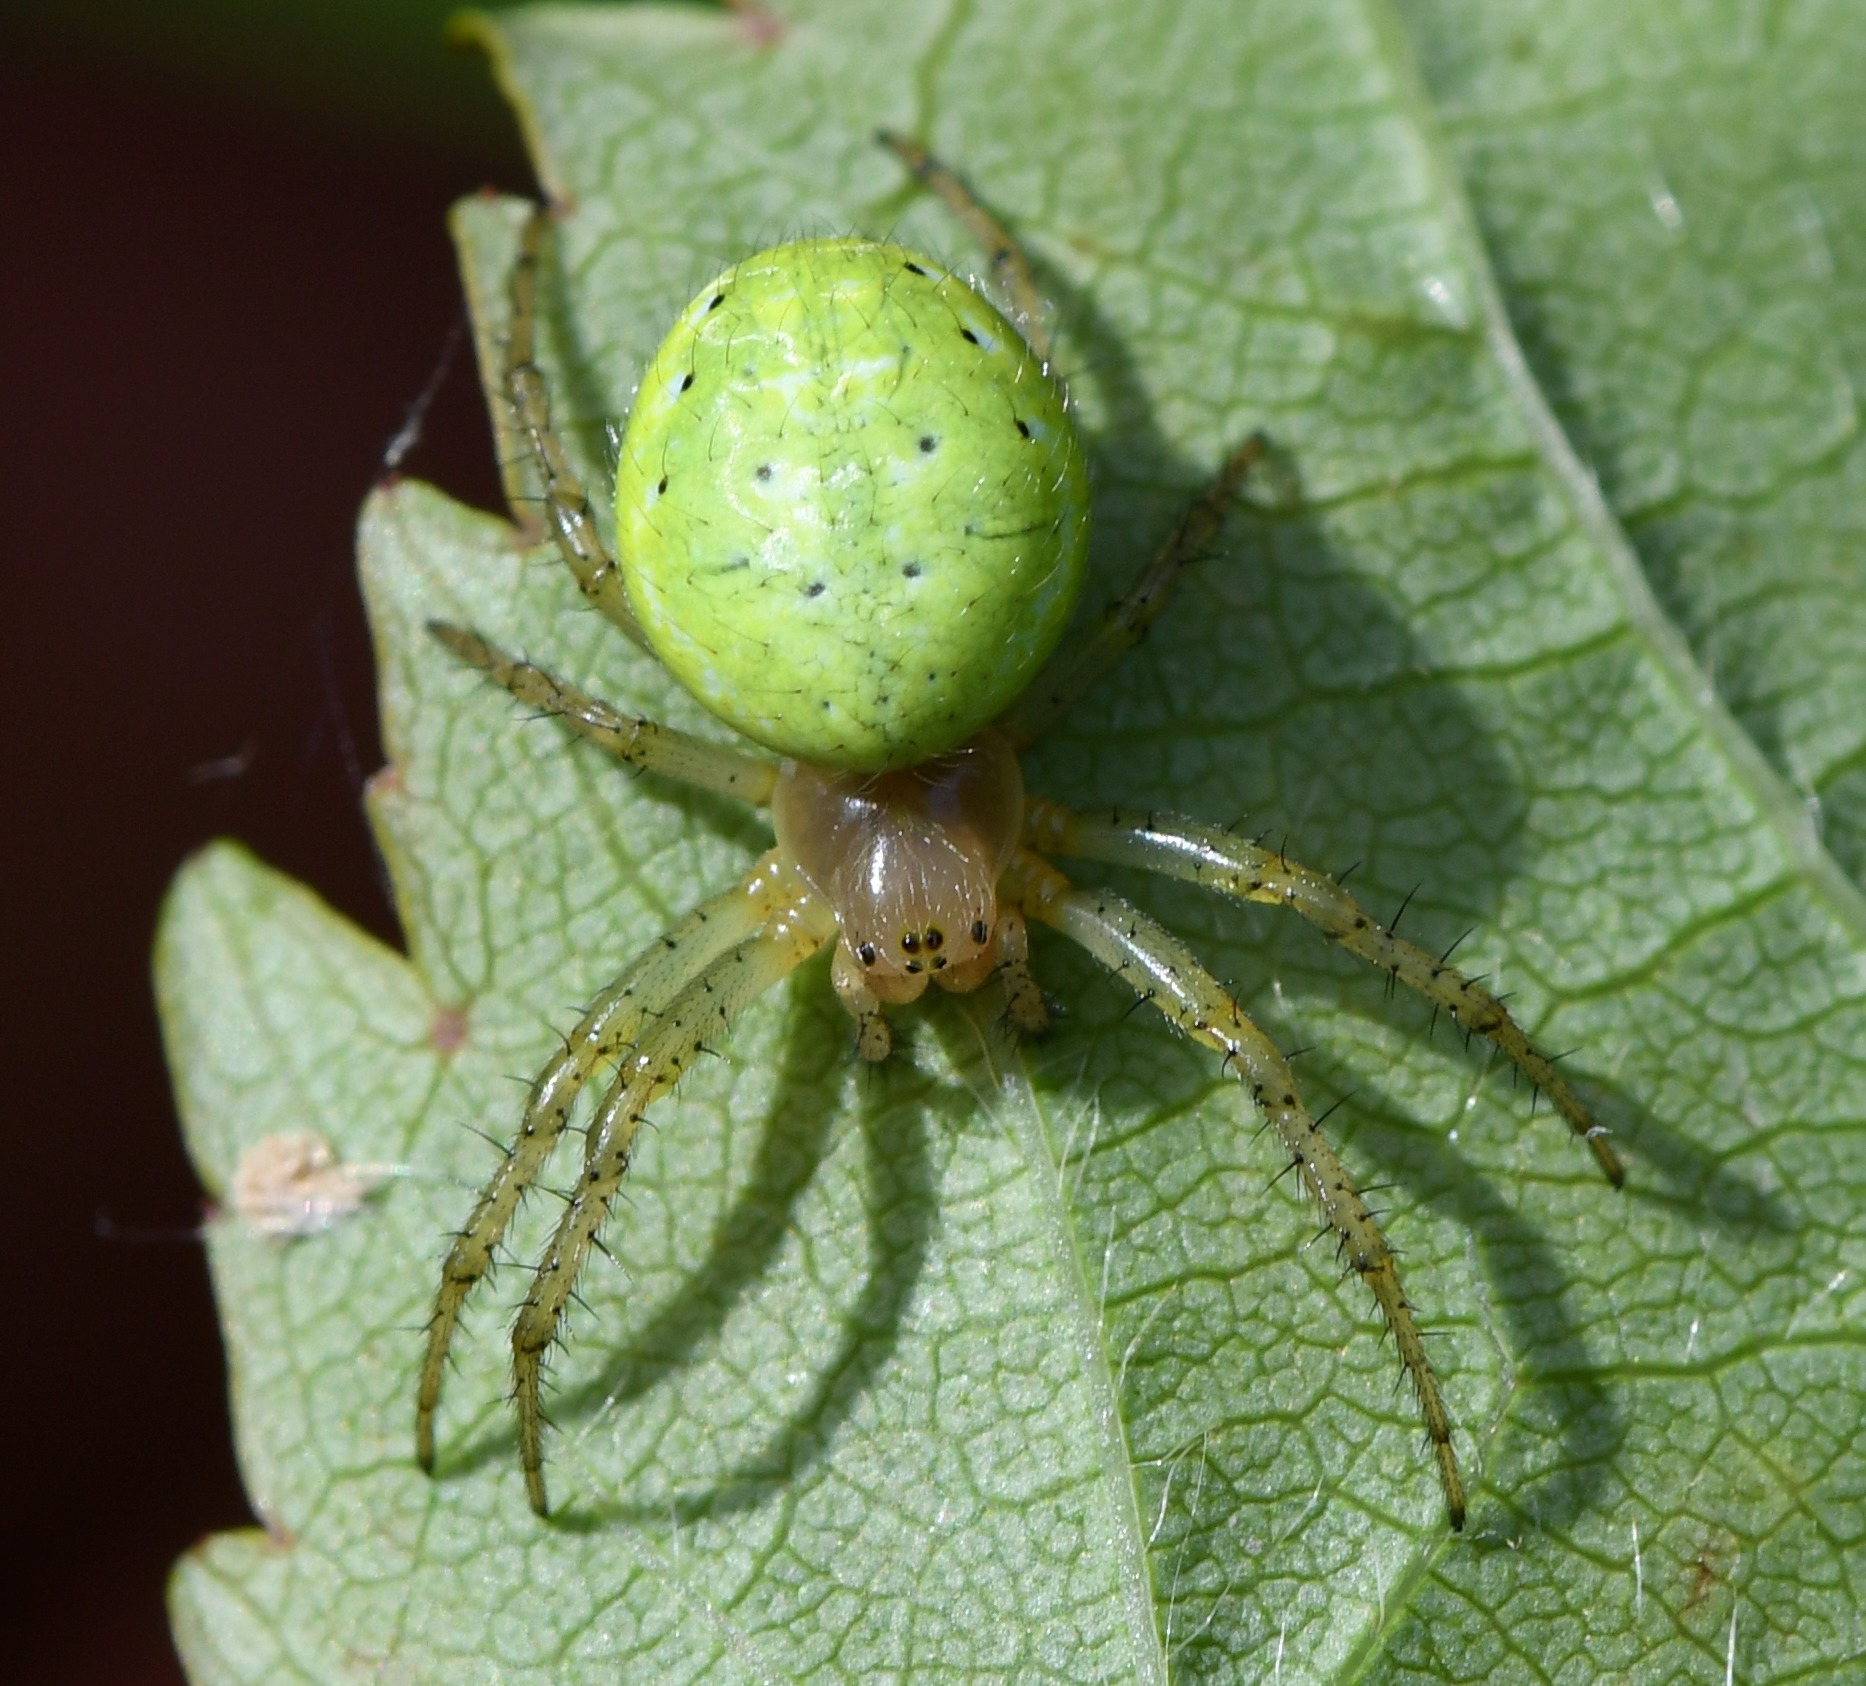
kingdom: Animalia
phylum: Arthropoda
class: Arachnida
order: Araneae
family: Araneidae
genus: Araniella
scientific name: Araniella
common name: Agurkeedderkopslægten
